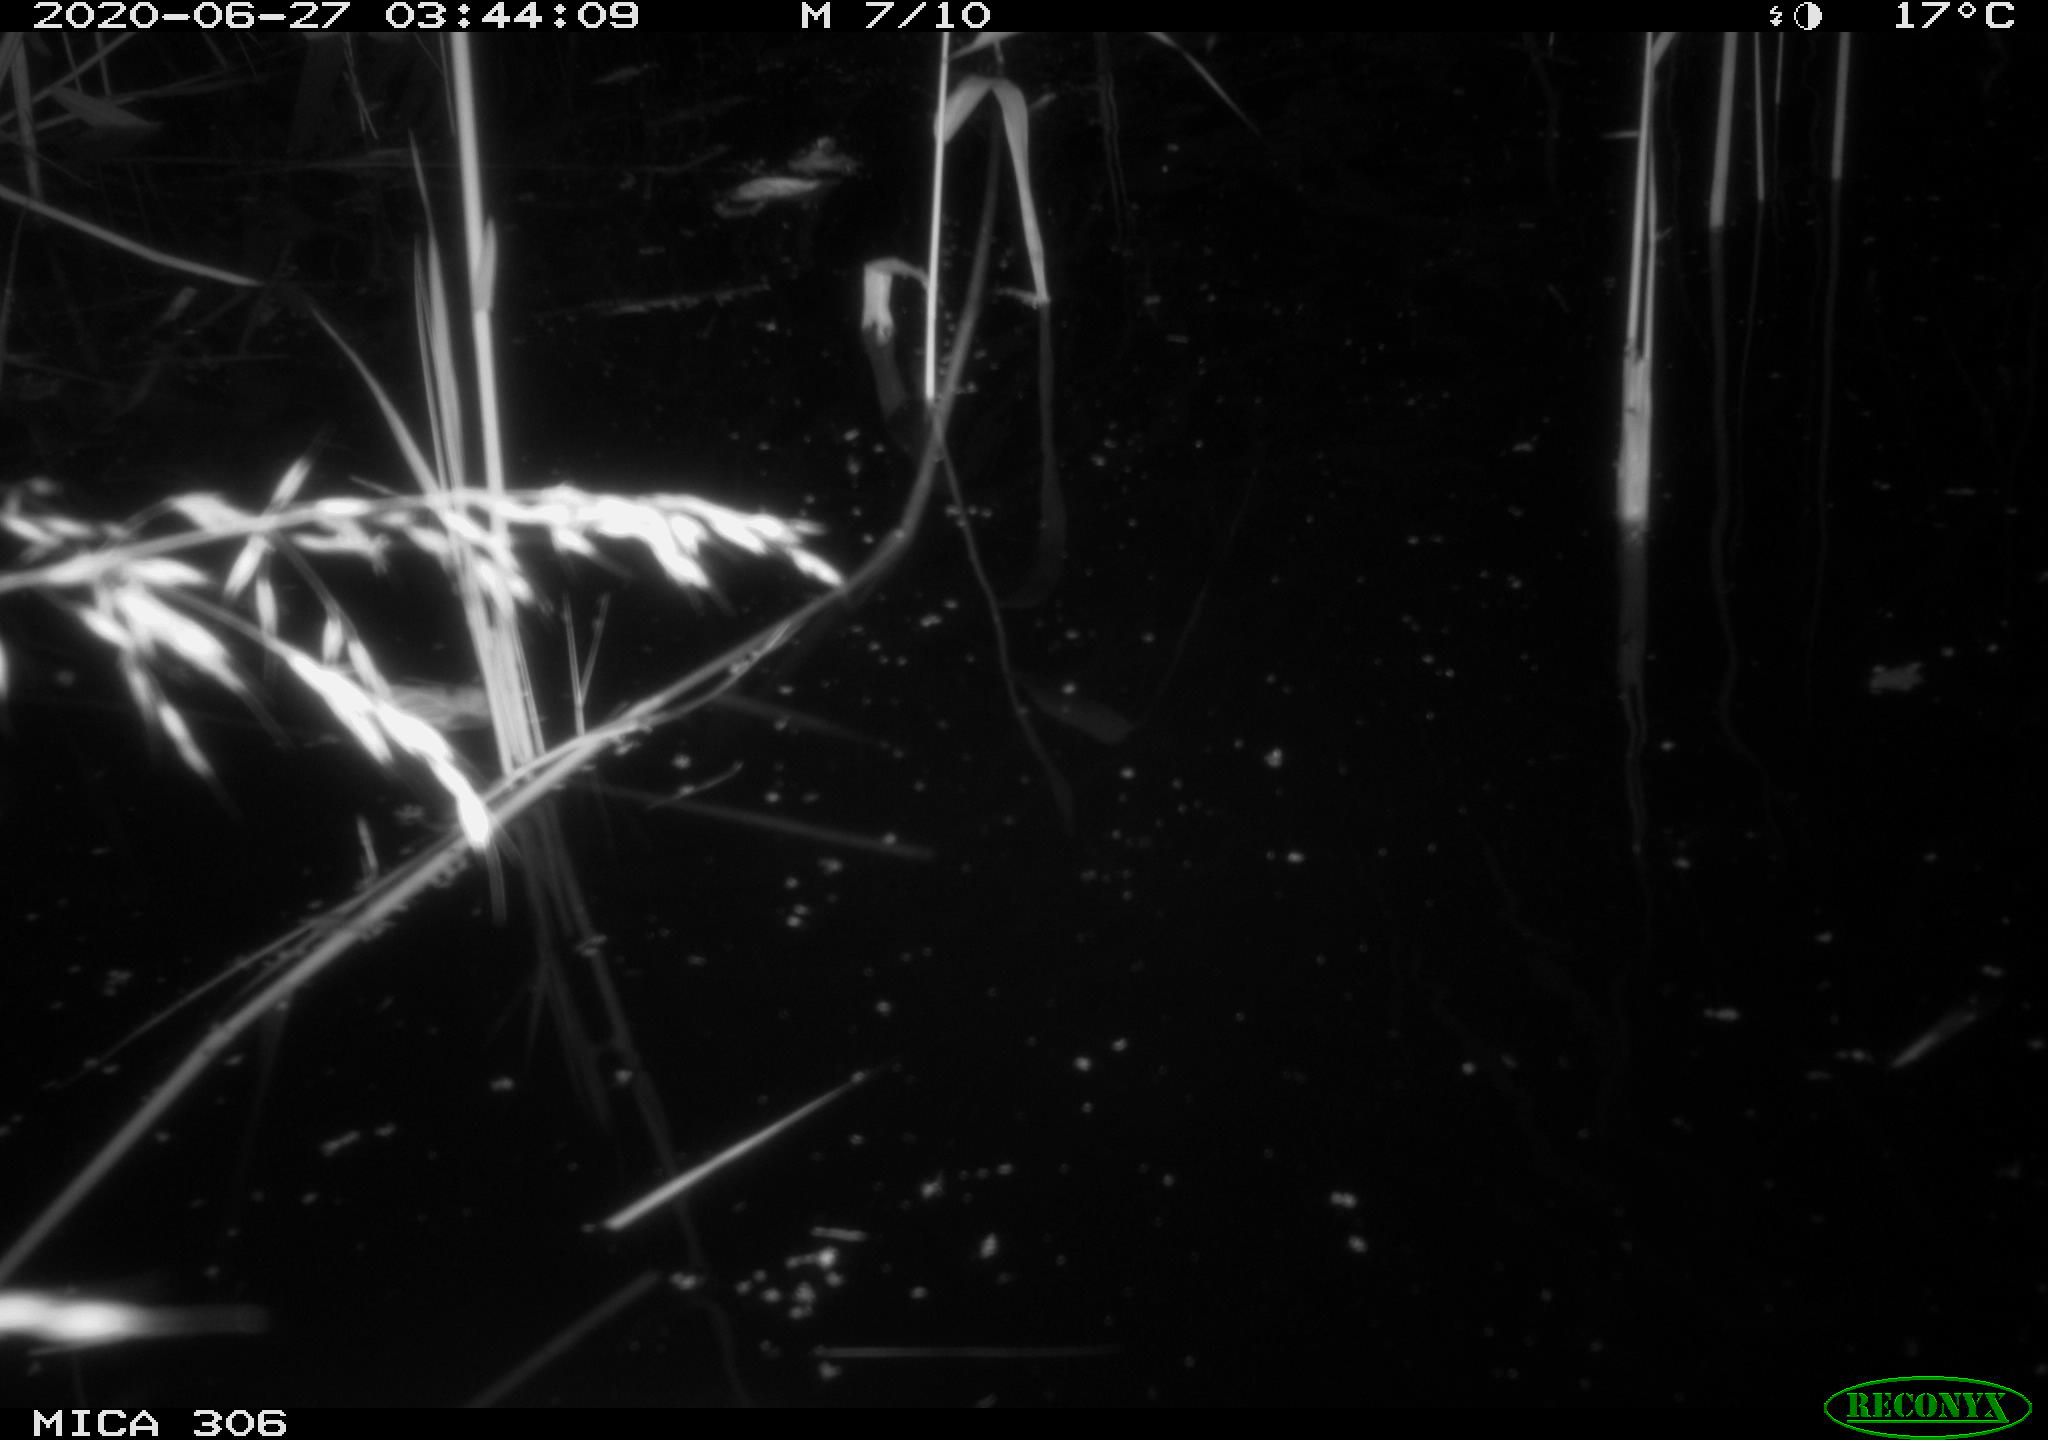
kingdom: Animalia
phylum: Chordata
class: Mammalia
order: Rodentia
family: Muridae
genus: Rattus
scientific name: Rattus norvegicus
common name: Brown rat
